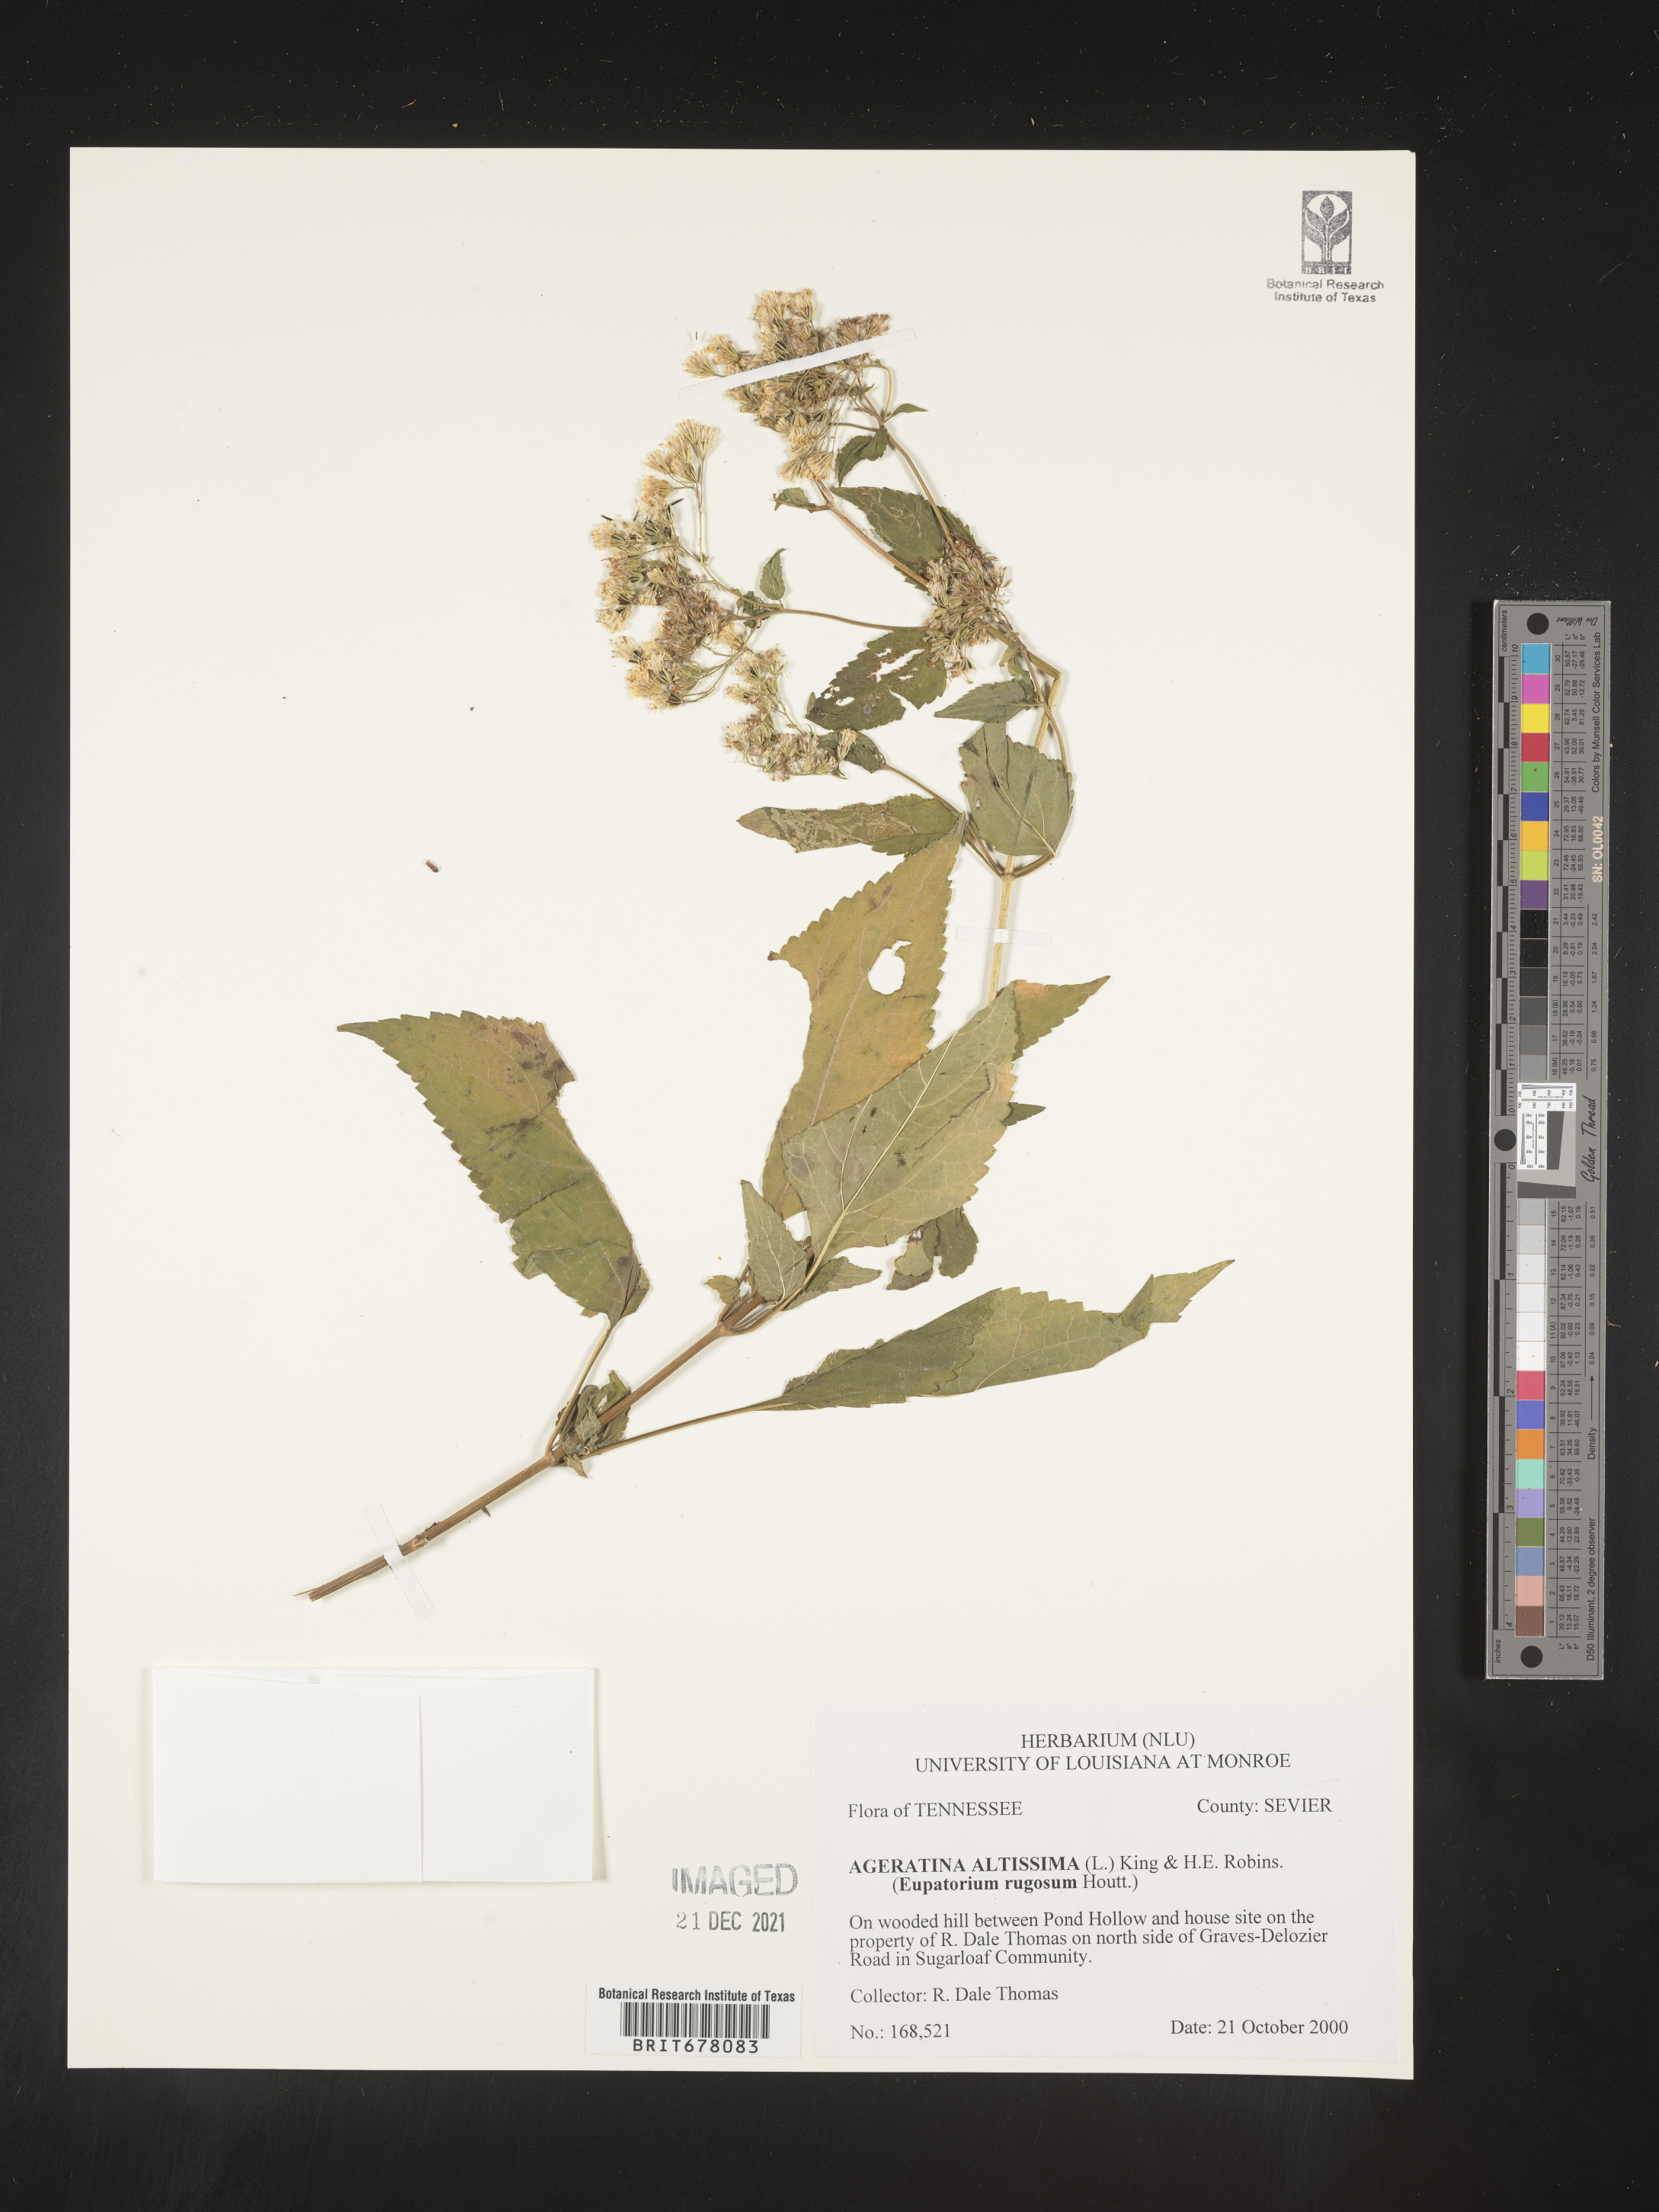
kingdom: Plantae
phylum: Tracheophyta
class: Magnoliopsida
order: Asterales
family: Asteraceae
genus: Eupatorium
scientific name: Eupatorium
